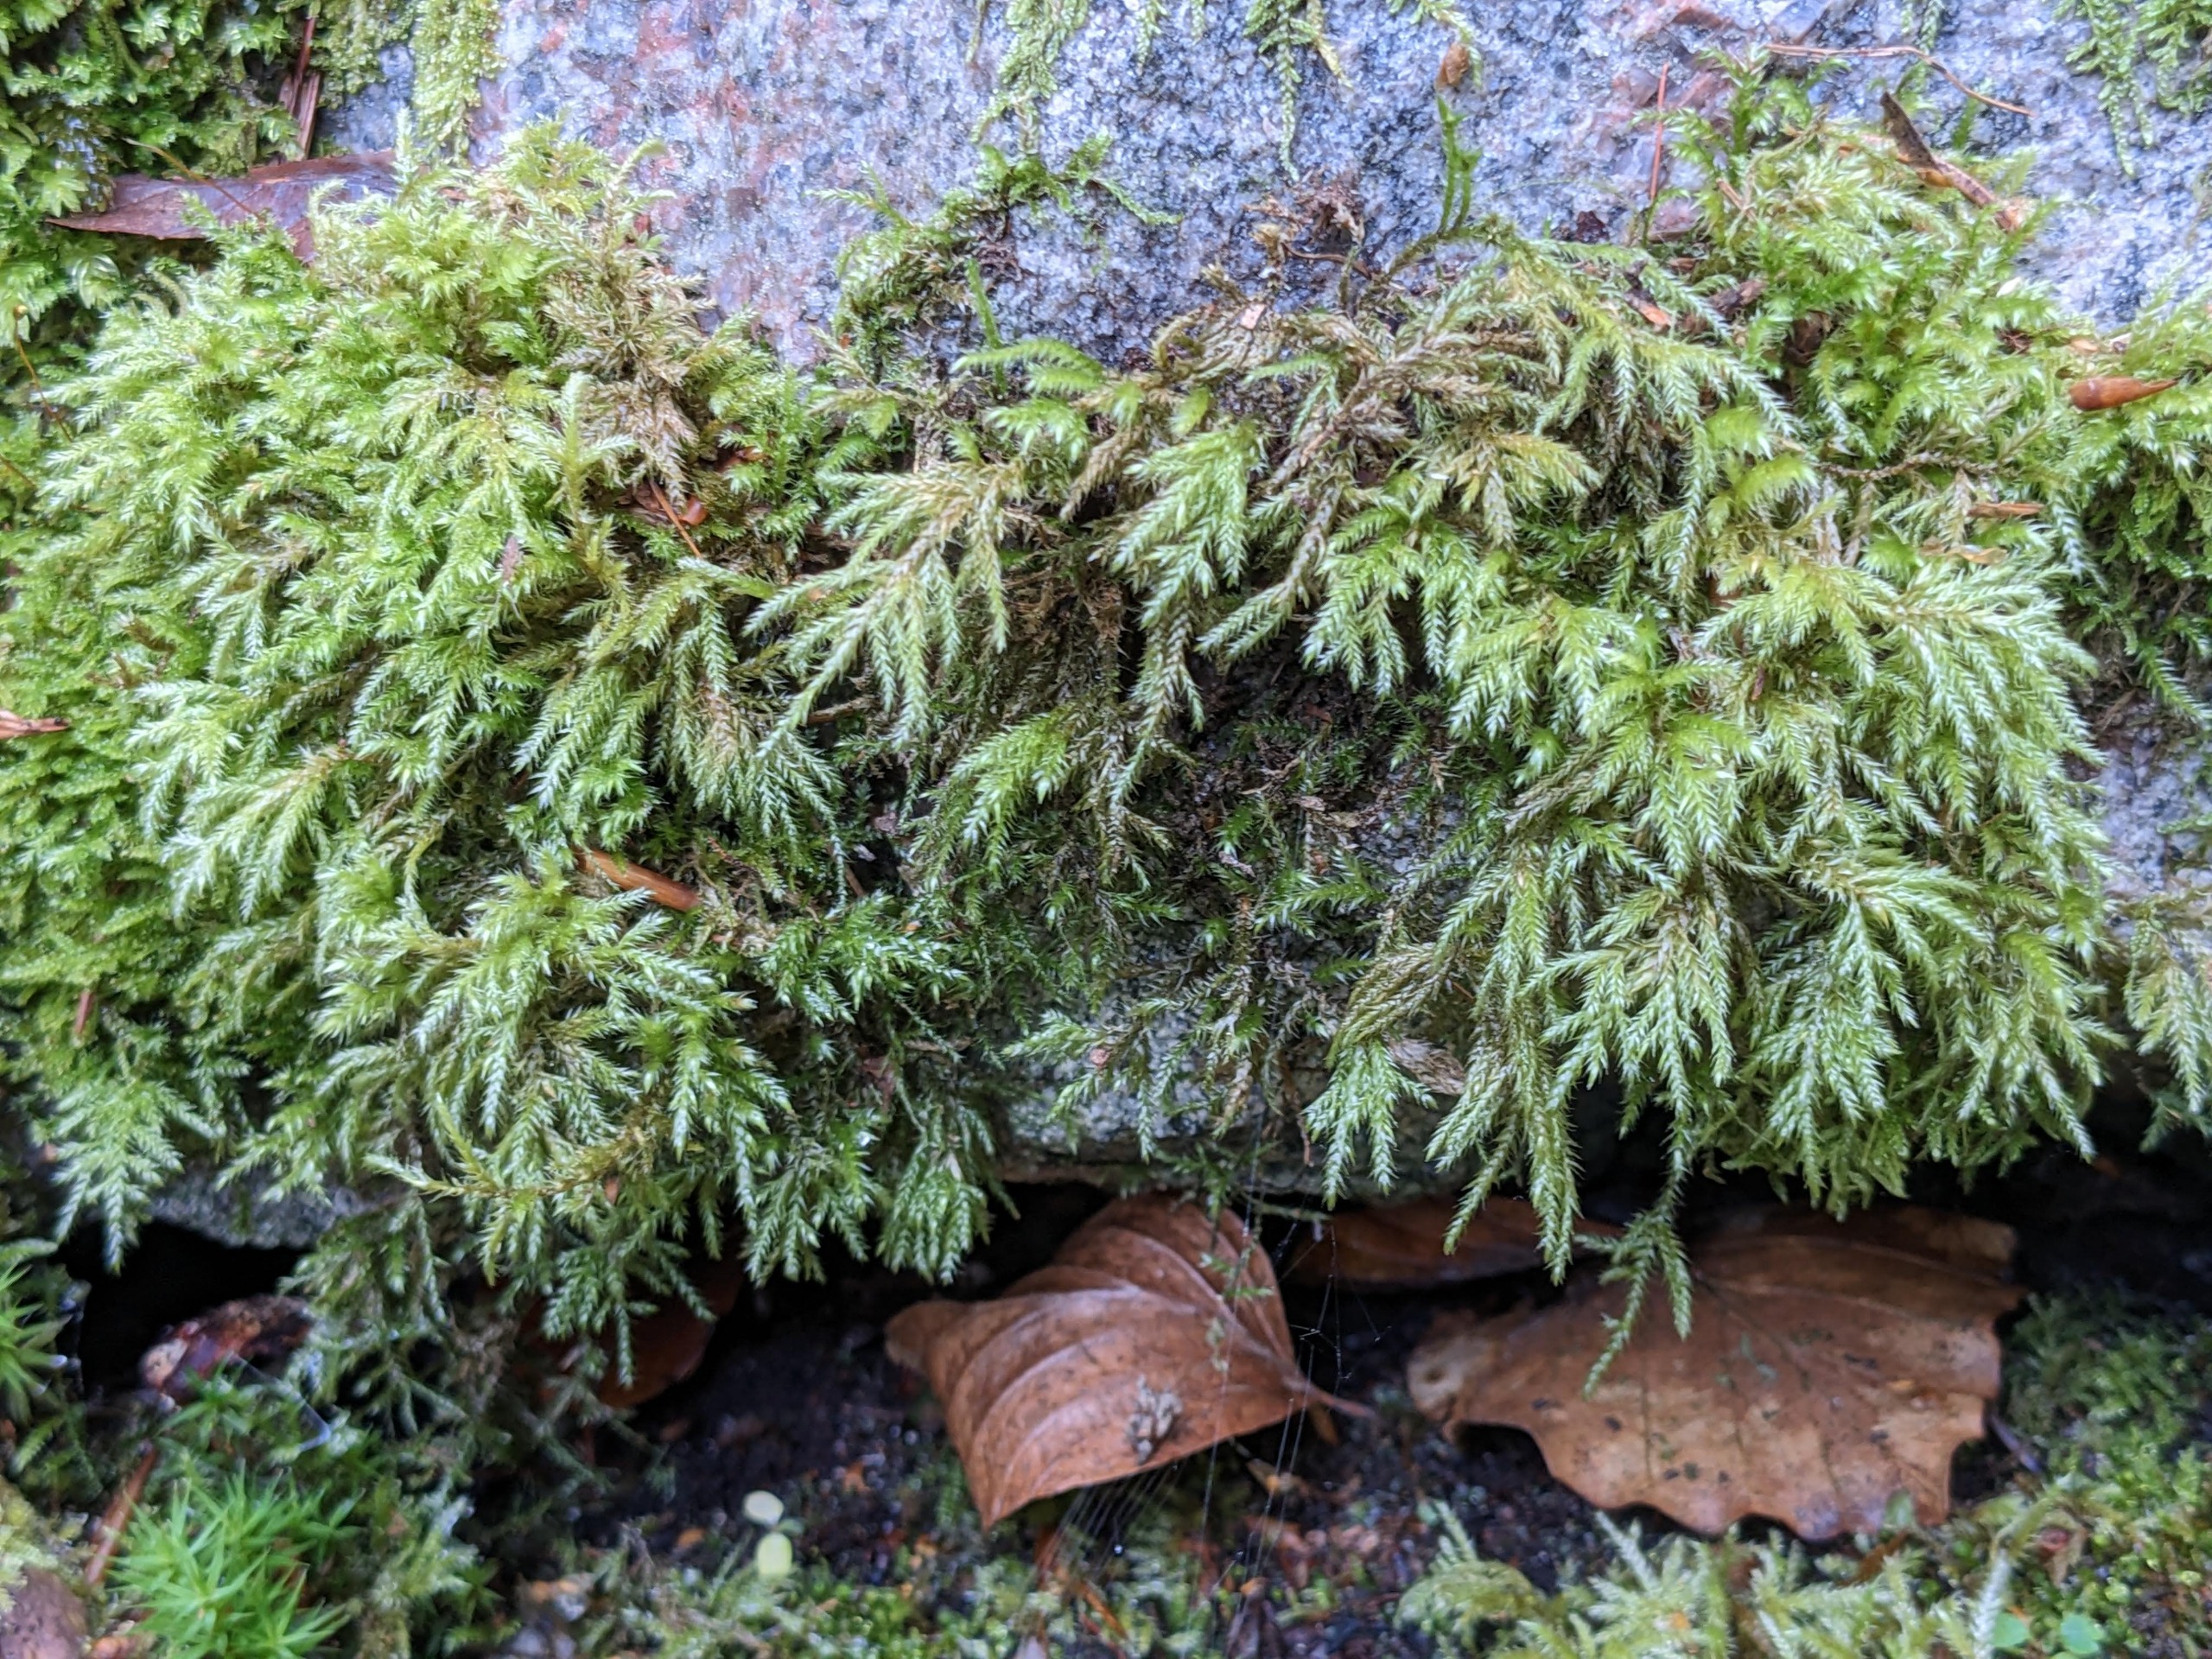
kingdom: Plantae
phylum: Bryophyta
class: Bryopsida
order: Hypnales
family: Lembophyllaceae
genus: Pseudisothecium
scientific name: Pseudisothecium myosuroides
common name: Slank stammemos
